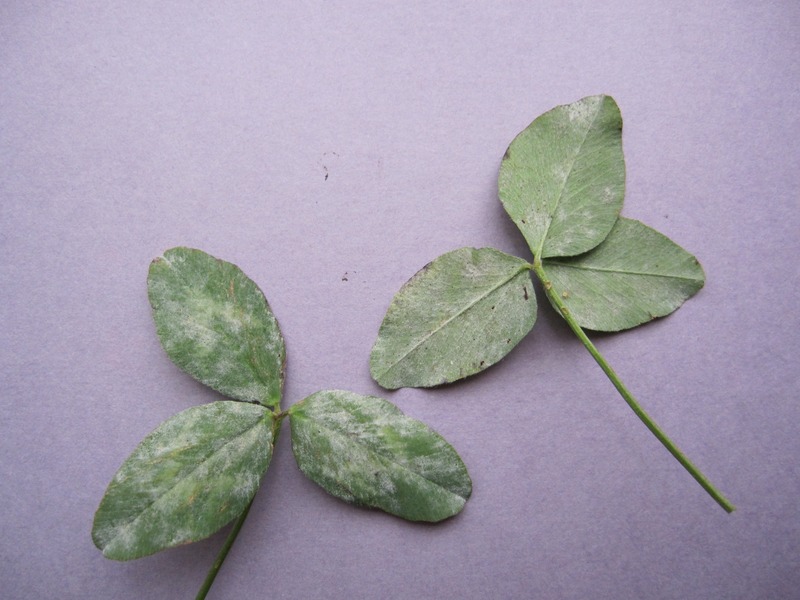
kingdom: Fungi
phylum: Ascomycota
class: Leotiomycetes
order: Helotiales
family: Erysiphaceae
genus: Erysiphe
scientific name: Erysiphe trifolii
